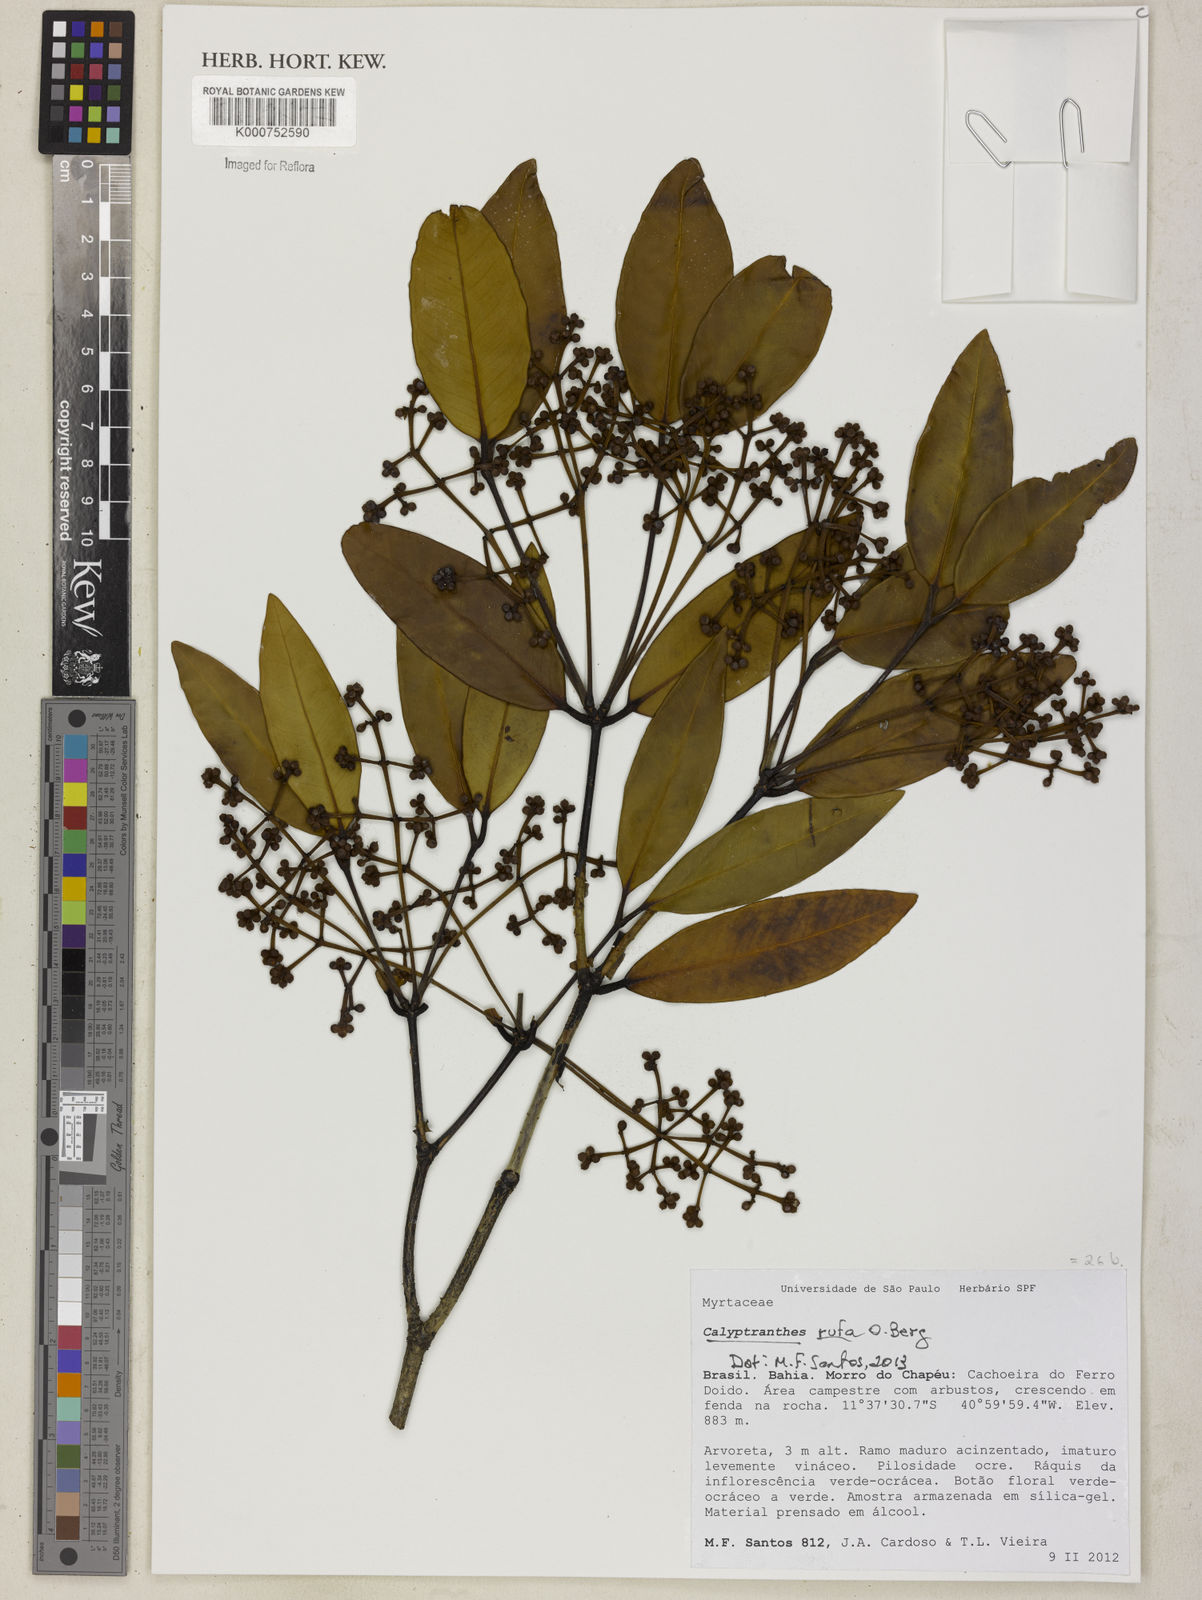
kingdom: Plantae
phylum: Tracheophyta
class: Magnoliopsida
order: Myrtales
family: Myrtaceae
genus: Calyptranthes
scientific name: Calyptranthes rufa
